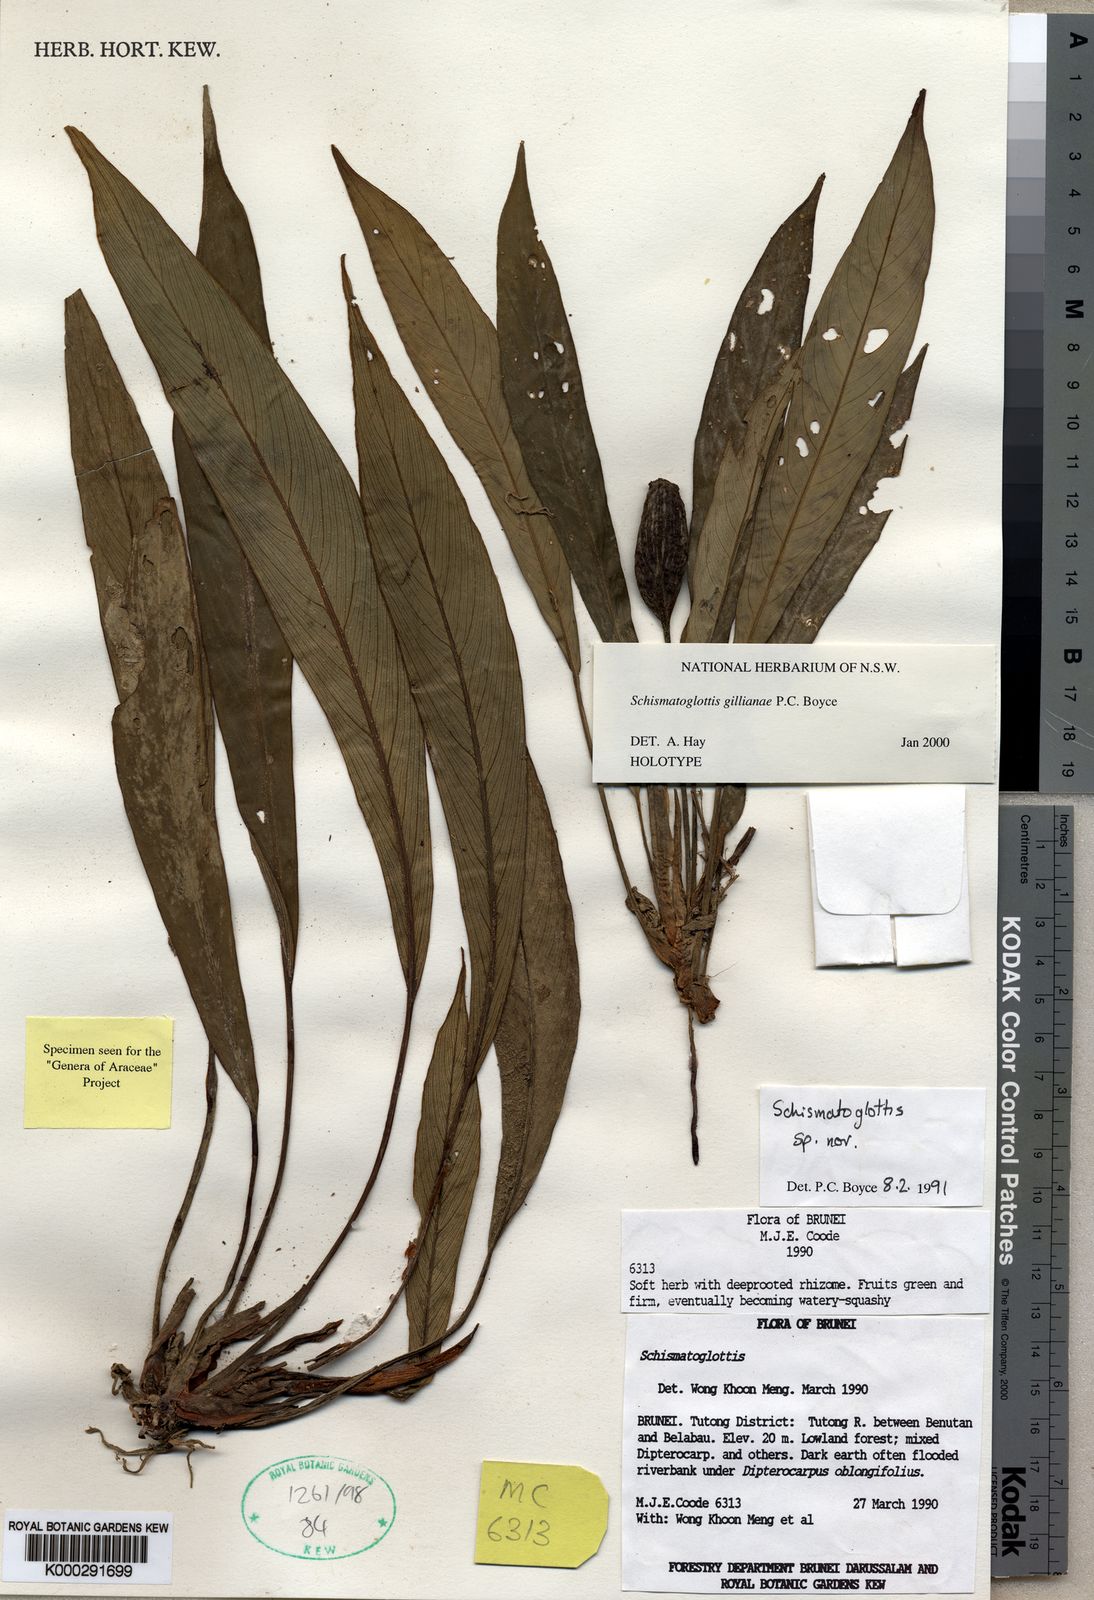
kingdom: Plantae
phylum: Tracheophyta
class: Liliopsida
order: Alismatales
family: Araceae
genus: Schismatoglottis
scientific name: Schismatoglottis gillianiae
